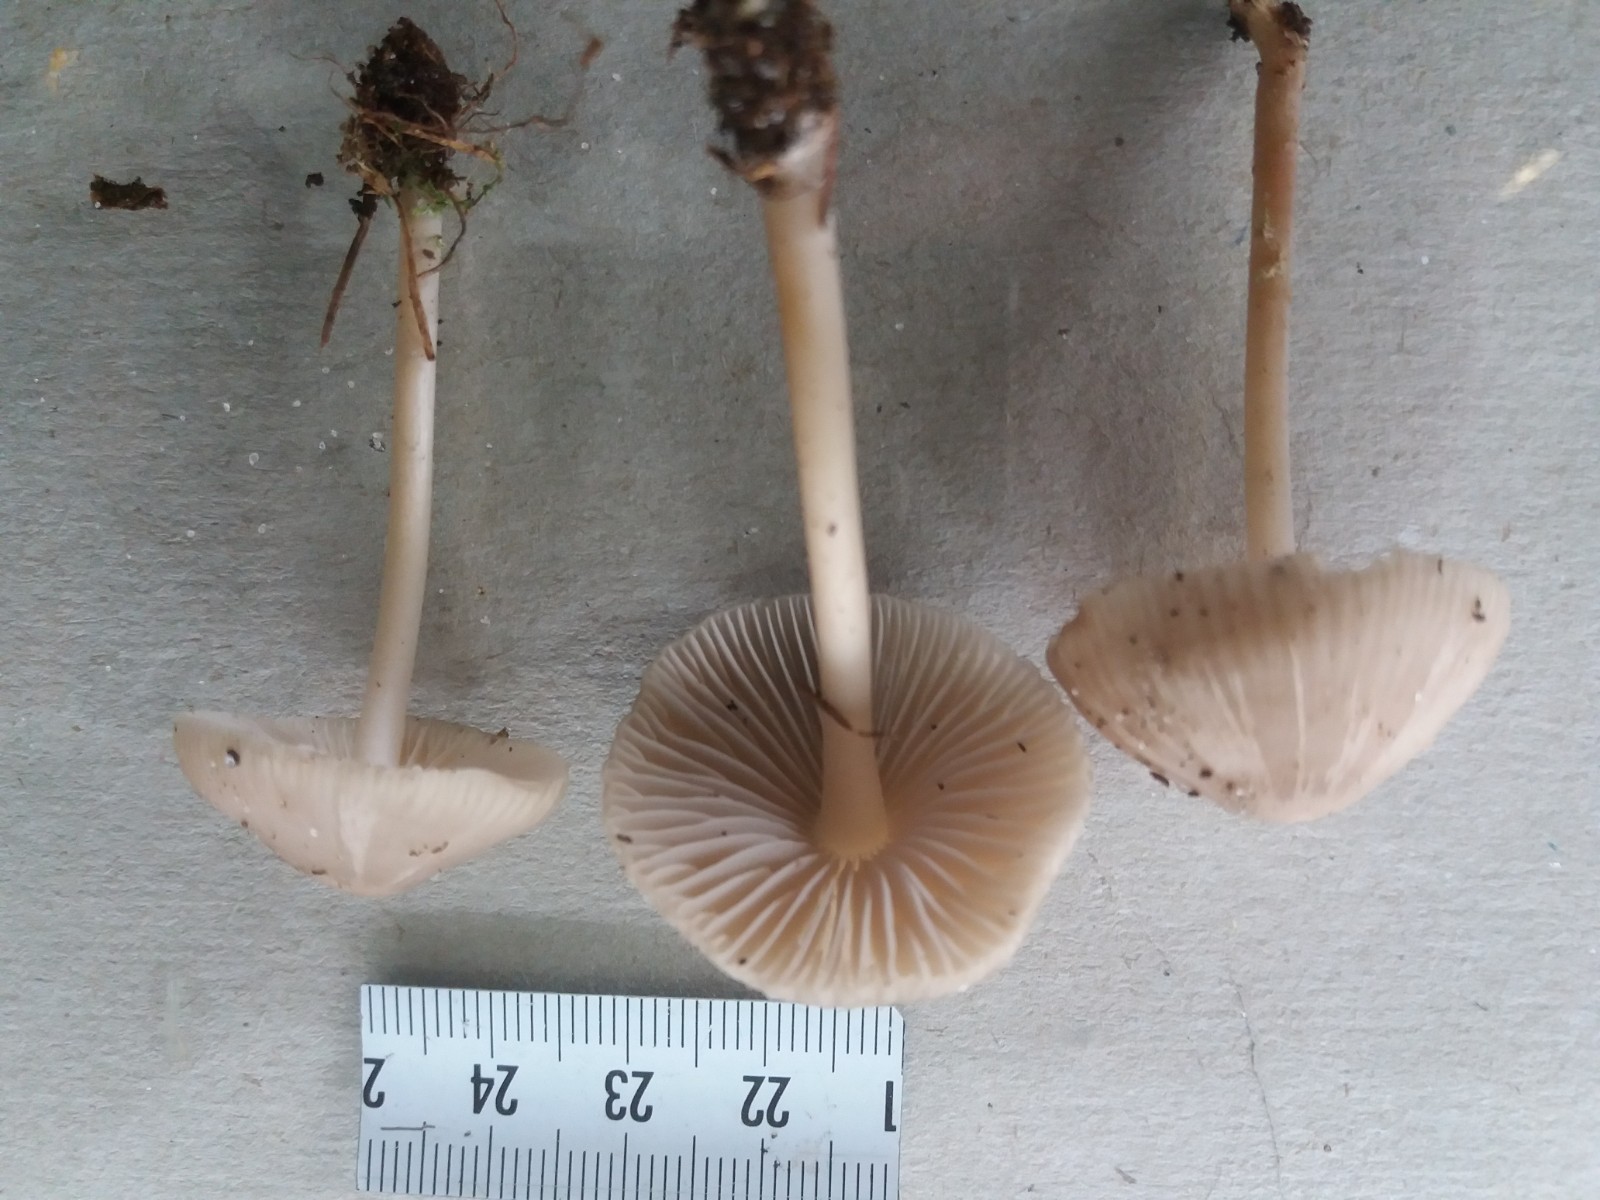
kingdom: Fungi
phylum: Basidiomycota
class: Agaricomycetes
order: Agaricales
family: Mycenaceae
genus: Mycena
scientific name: Mycena galericulata
